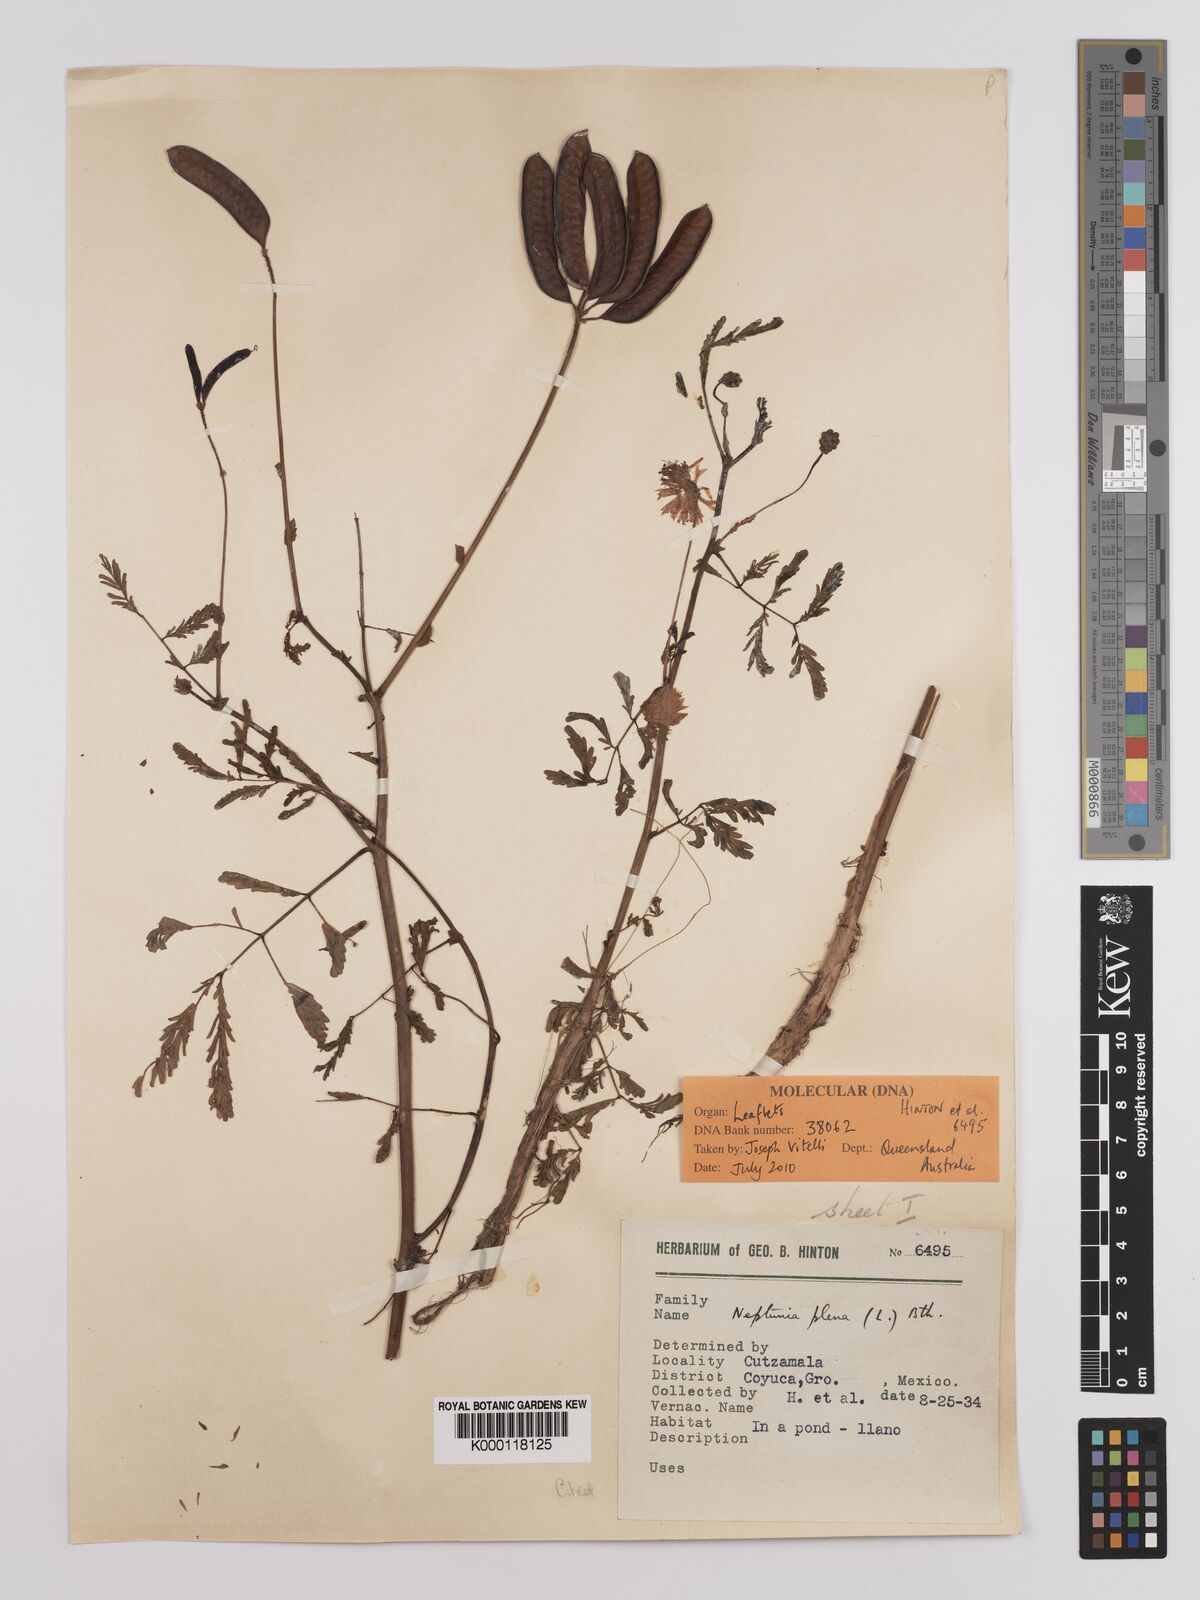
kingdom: Plantae
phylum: Tracheophyta
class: Magnoliopsida
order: Fabales
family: Fabaceae
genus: Neptunia
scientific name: Neptunia plena
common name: Dead and awake
